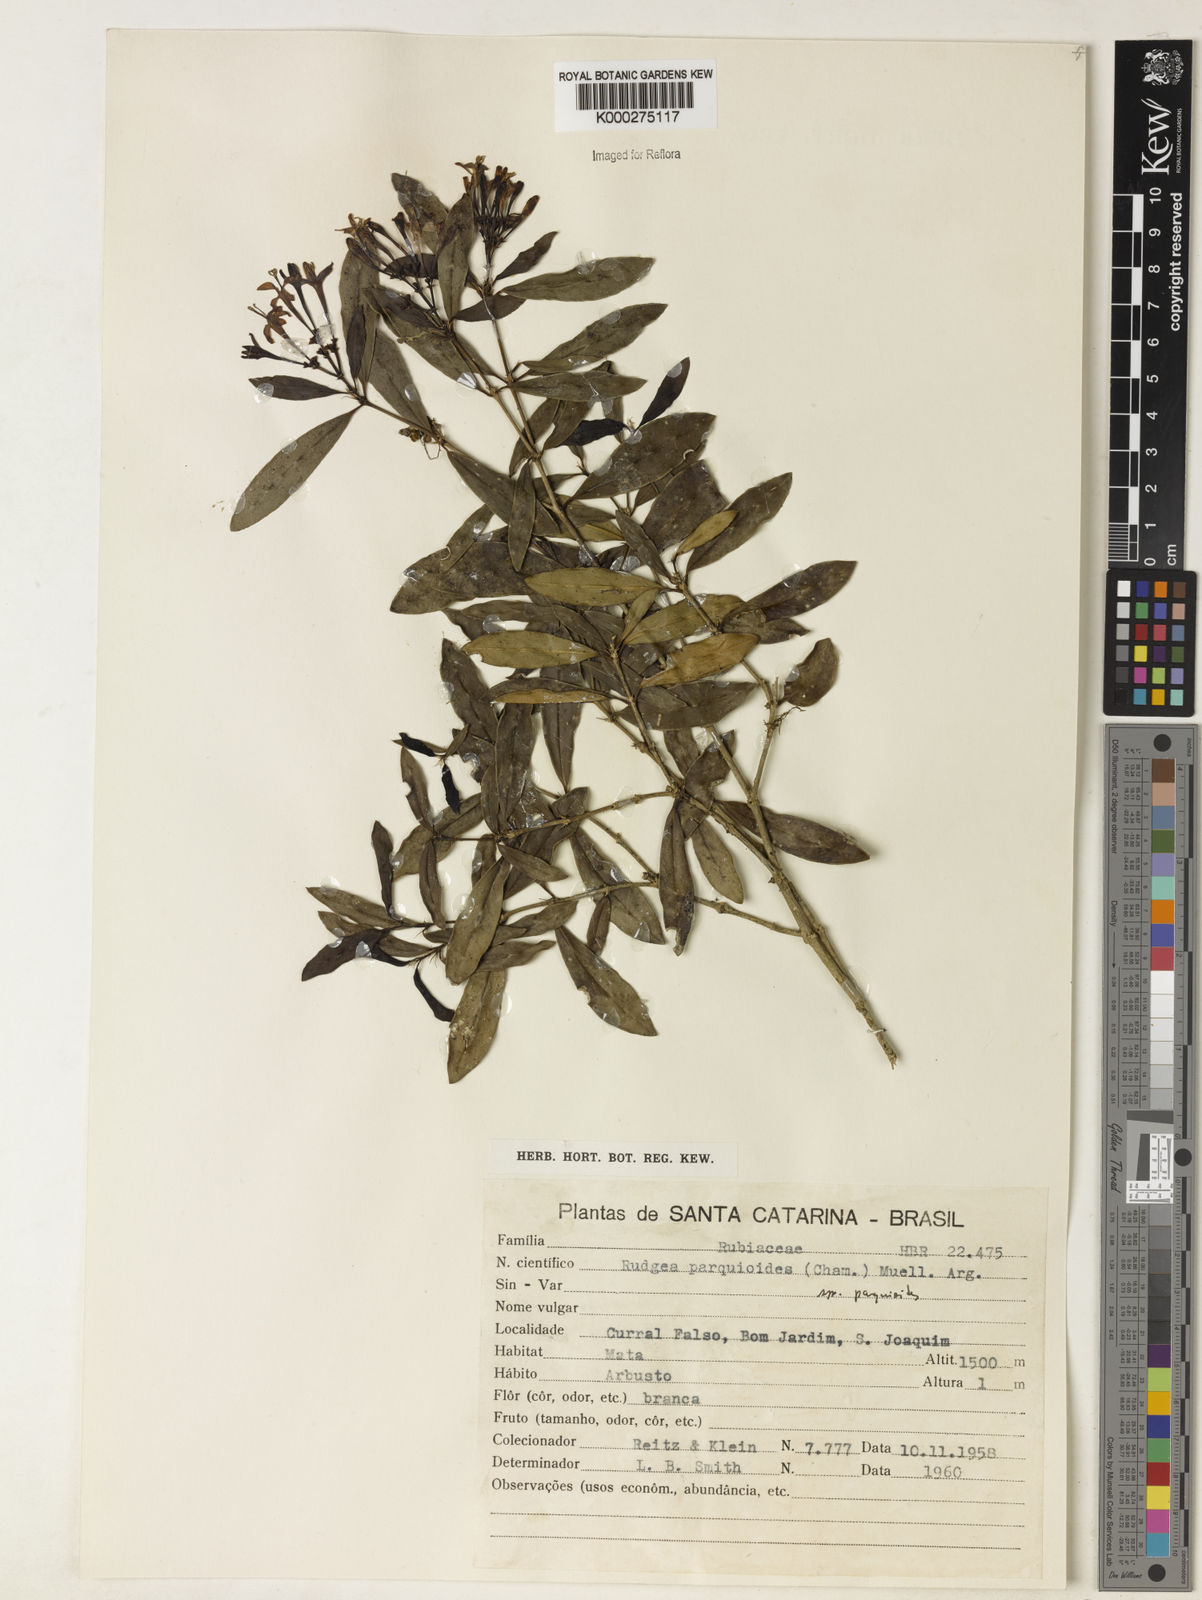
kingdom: Plantae
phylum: Tracheophyta
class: Magnoliopsida
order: Gentianales
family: Rubiaceae
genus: Rudgea
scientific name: Rudgea parquioides
